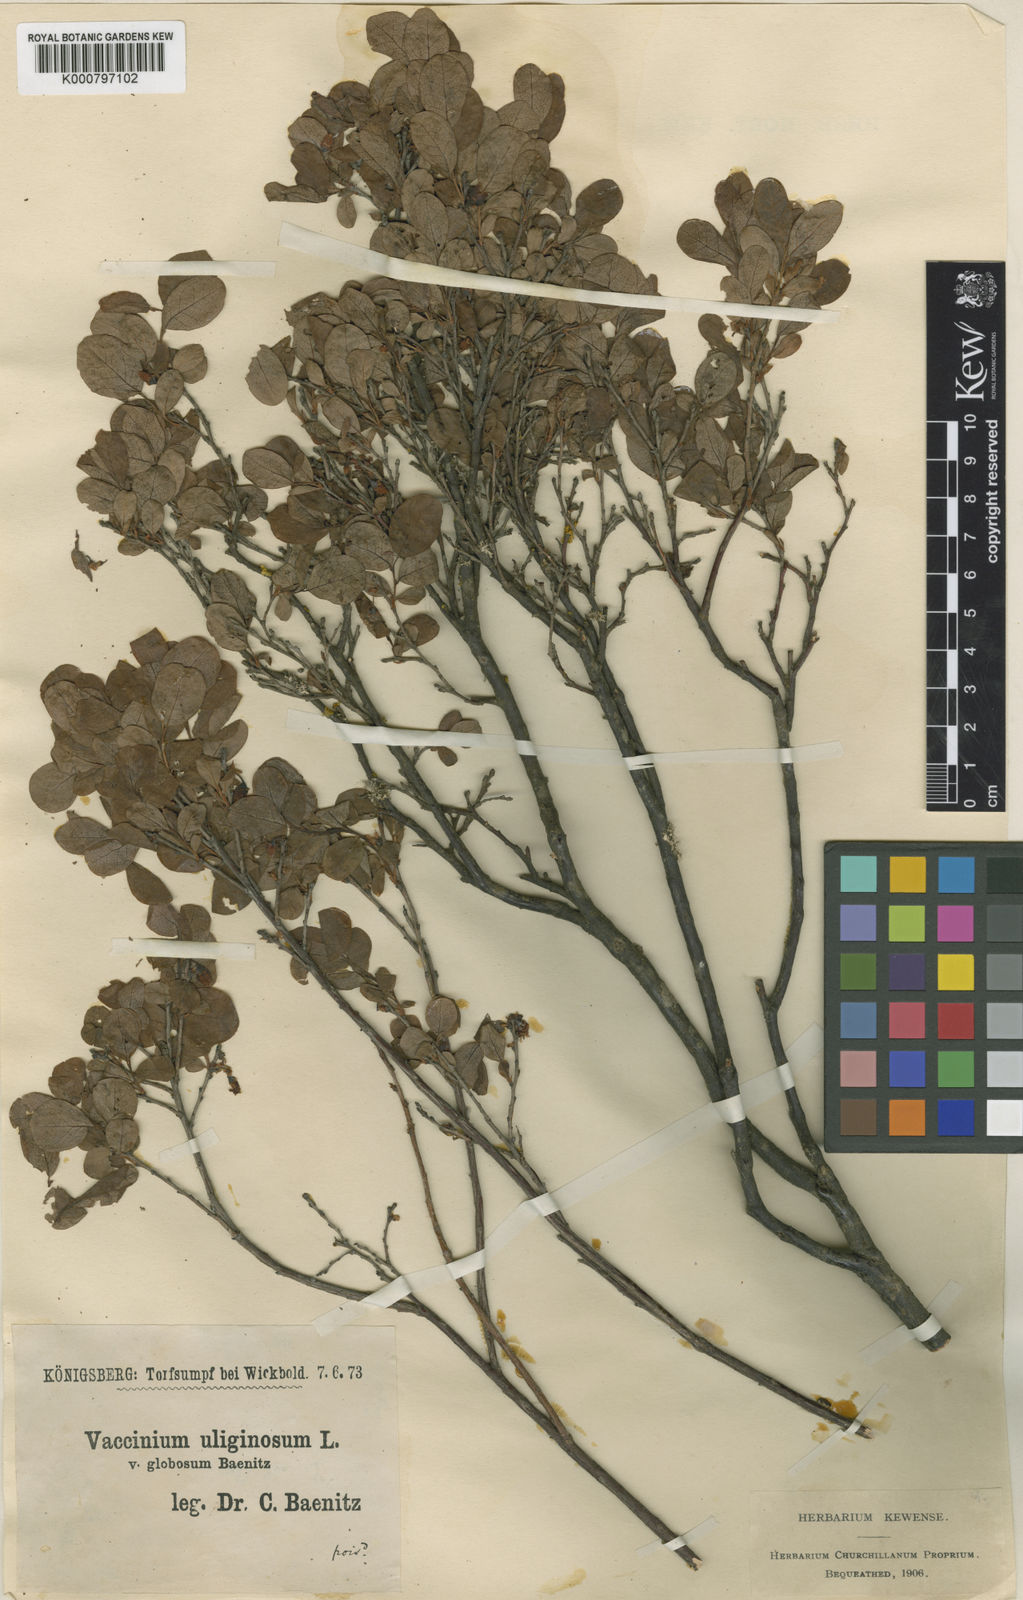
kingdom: Plantae
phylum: Tracheophyta
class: Magnoliopsida
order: Ericales
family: Ericaceae
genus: Vaccinium
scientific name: Vaccinium uliginosum
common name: Bog bilberry
